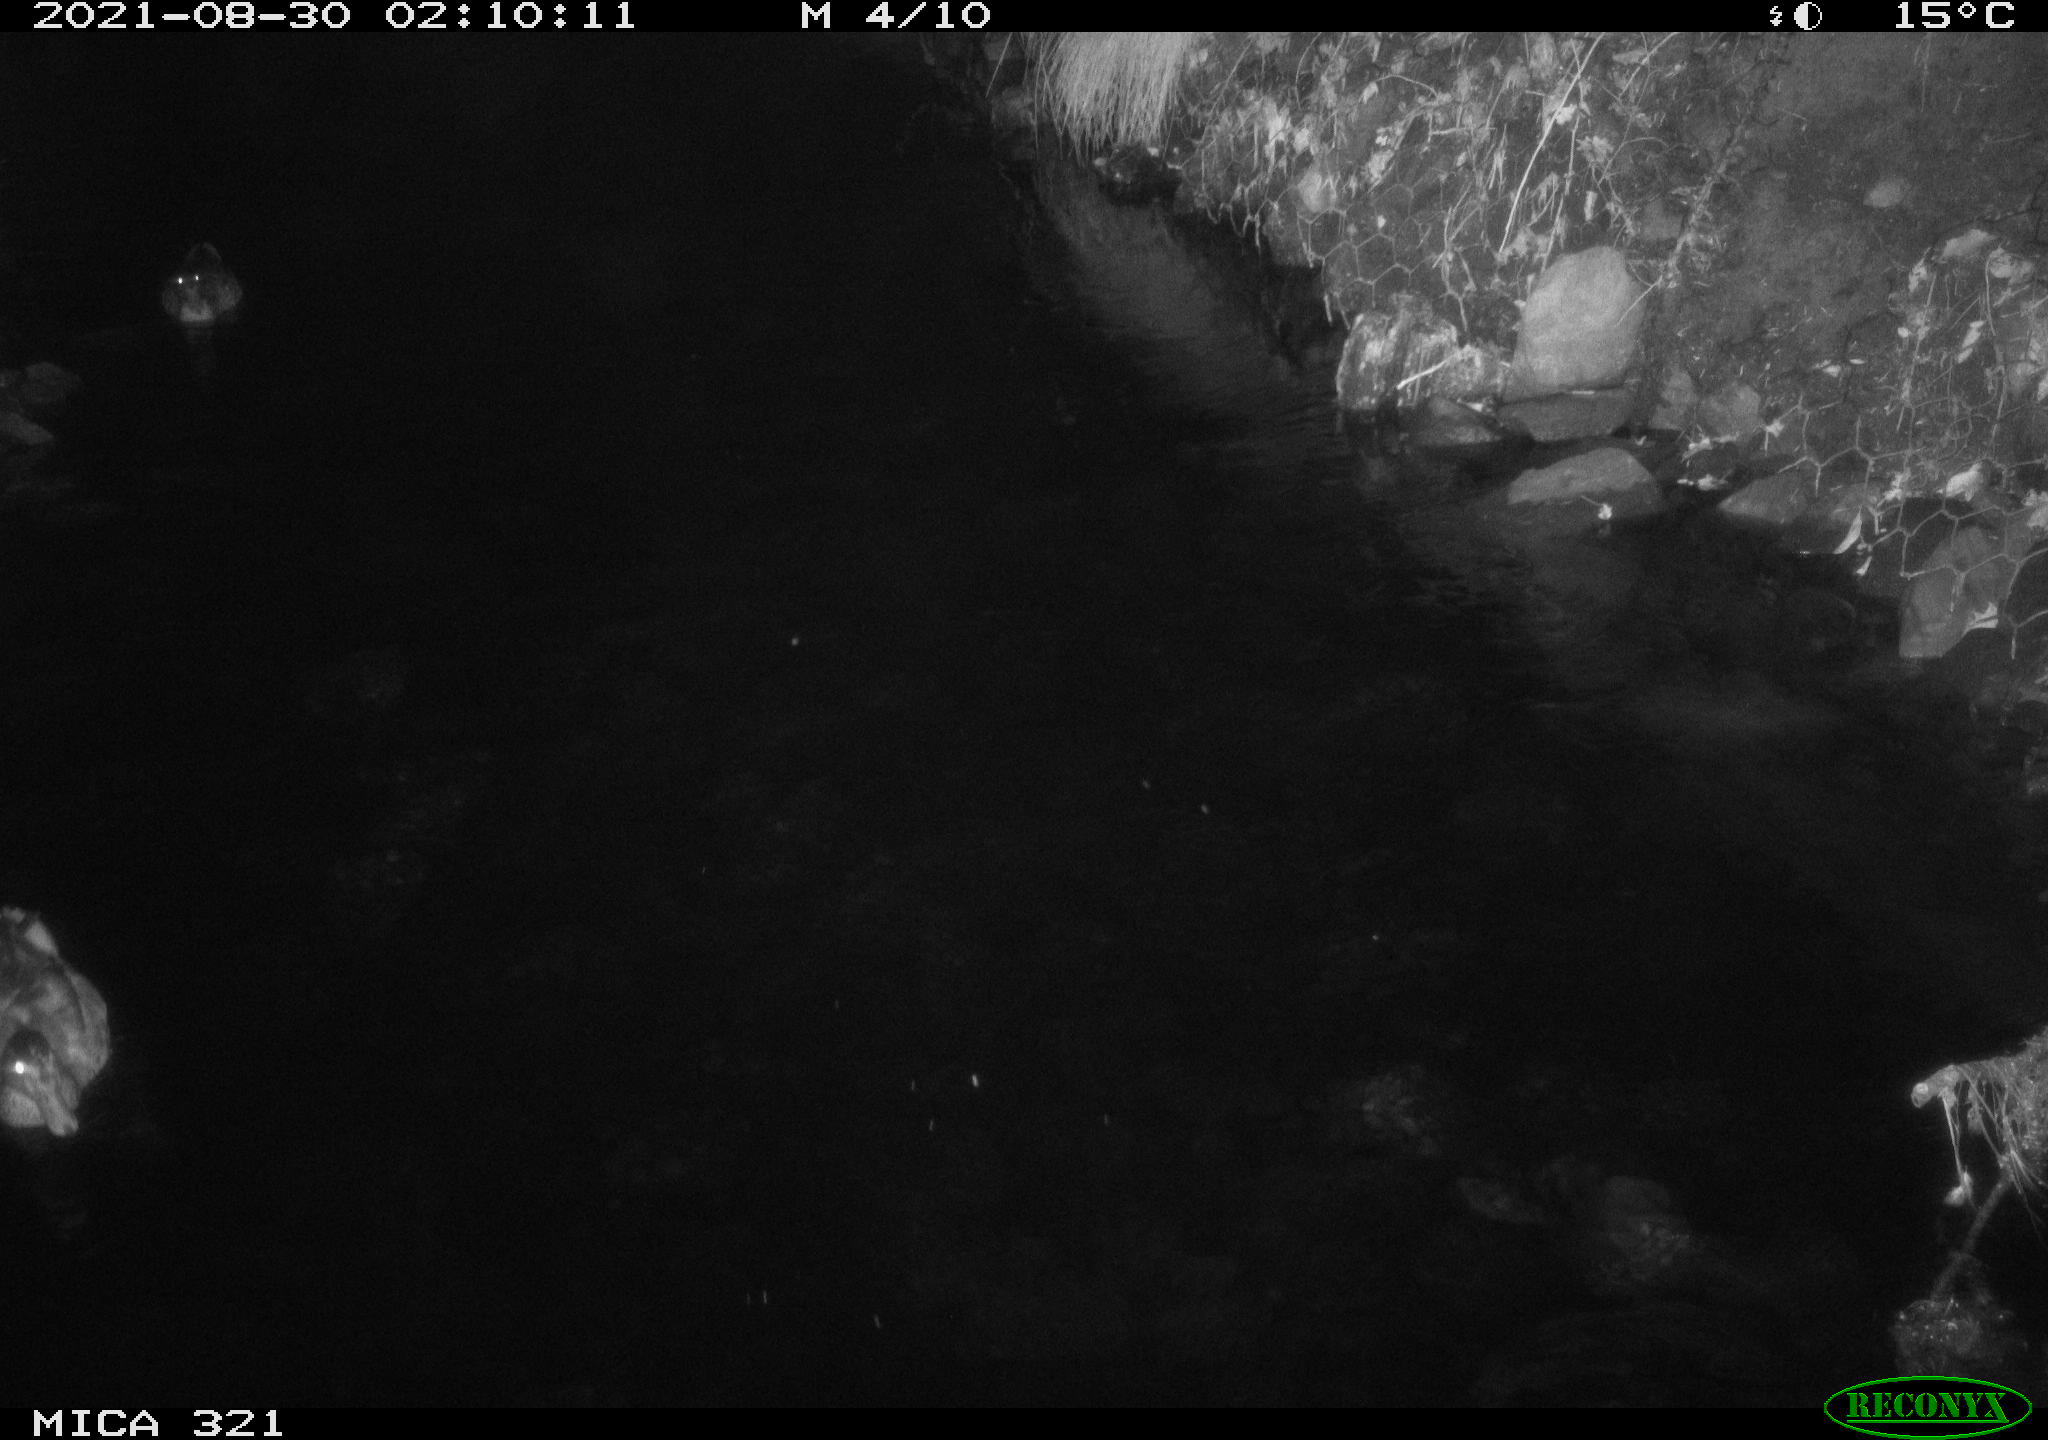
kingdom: Animalia
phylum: Chordata
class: Aves
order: Anseriformes
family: Anatidae
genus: Anas
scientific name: Anas platyrhynchos
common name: Mallard
